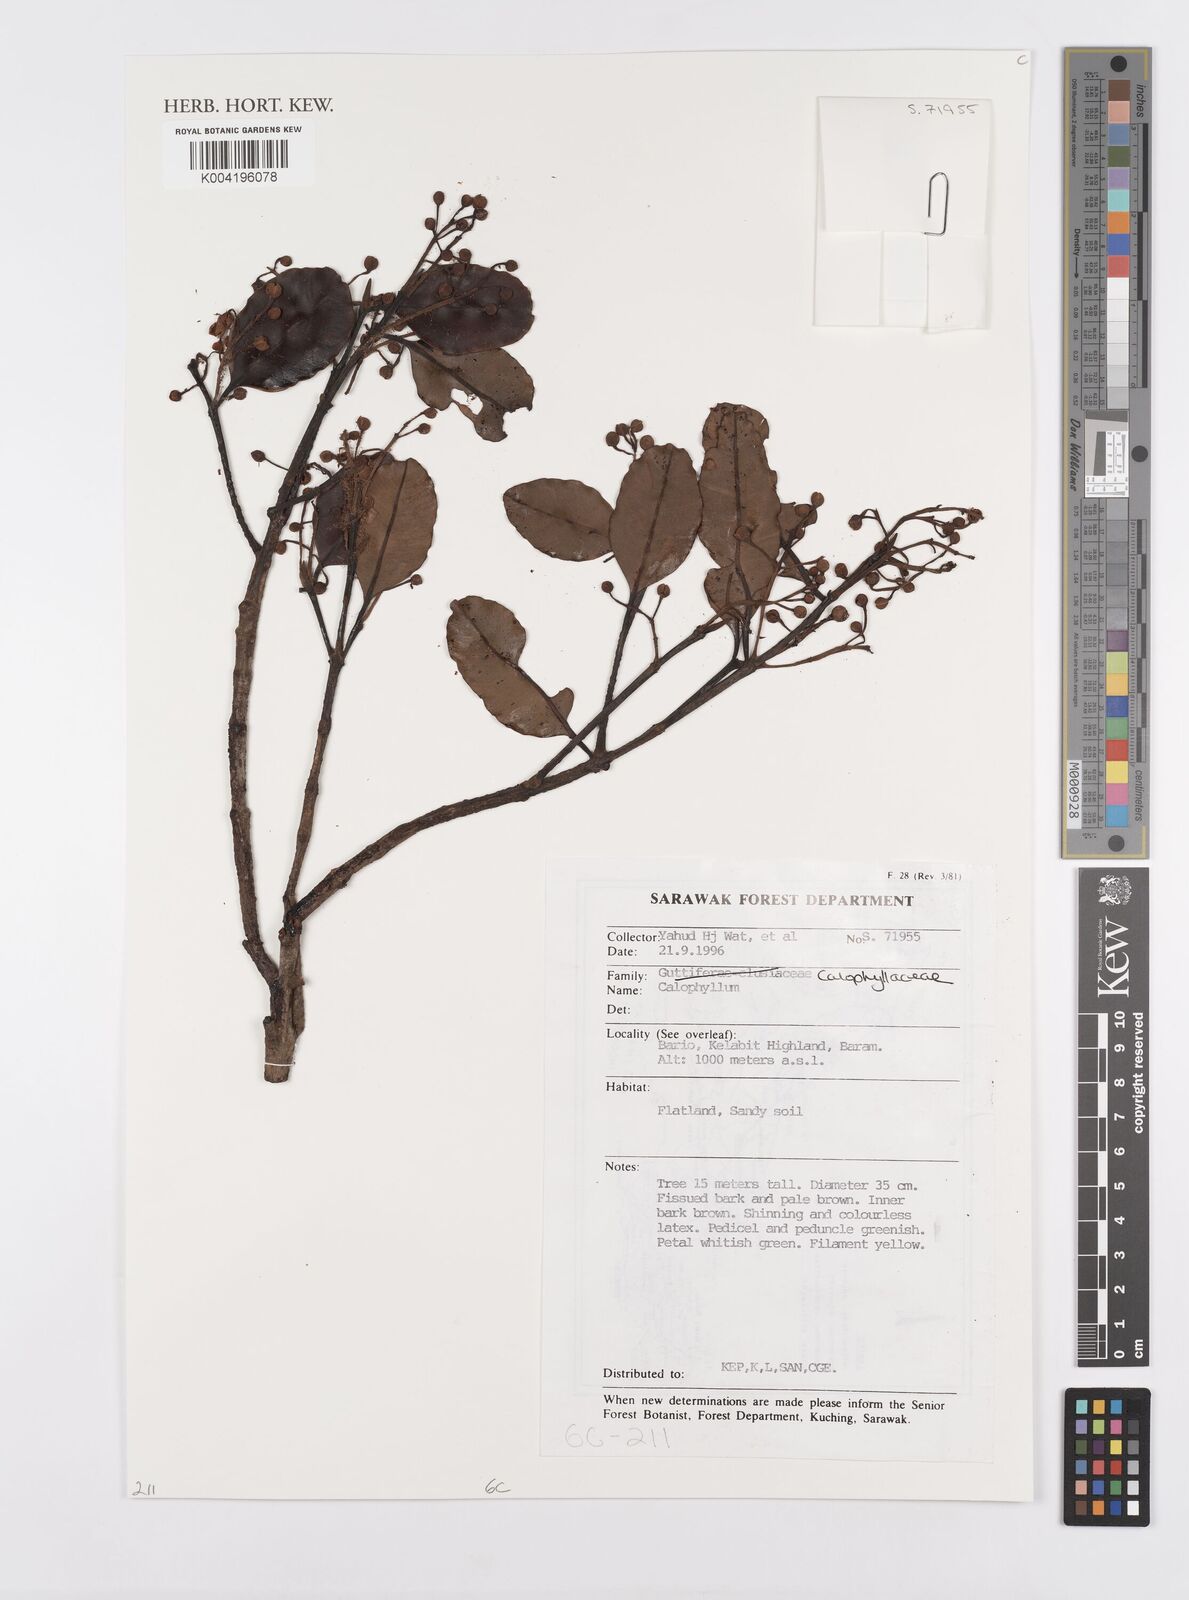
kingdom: Plantae
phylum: Tracheophyta
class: Magnoliopsida
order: Malpighiales
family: Calophyllaceae
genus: Calophyllum
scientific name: Calophyllum
